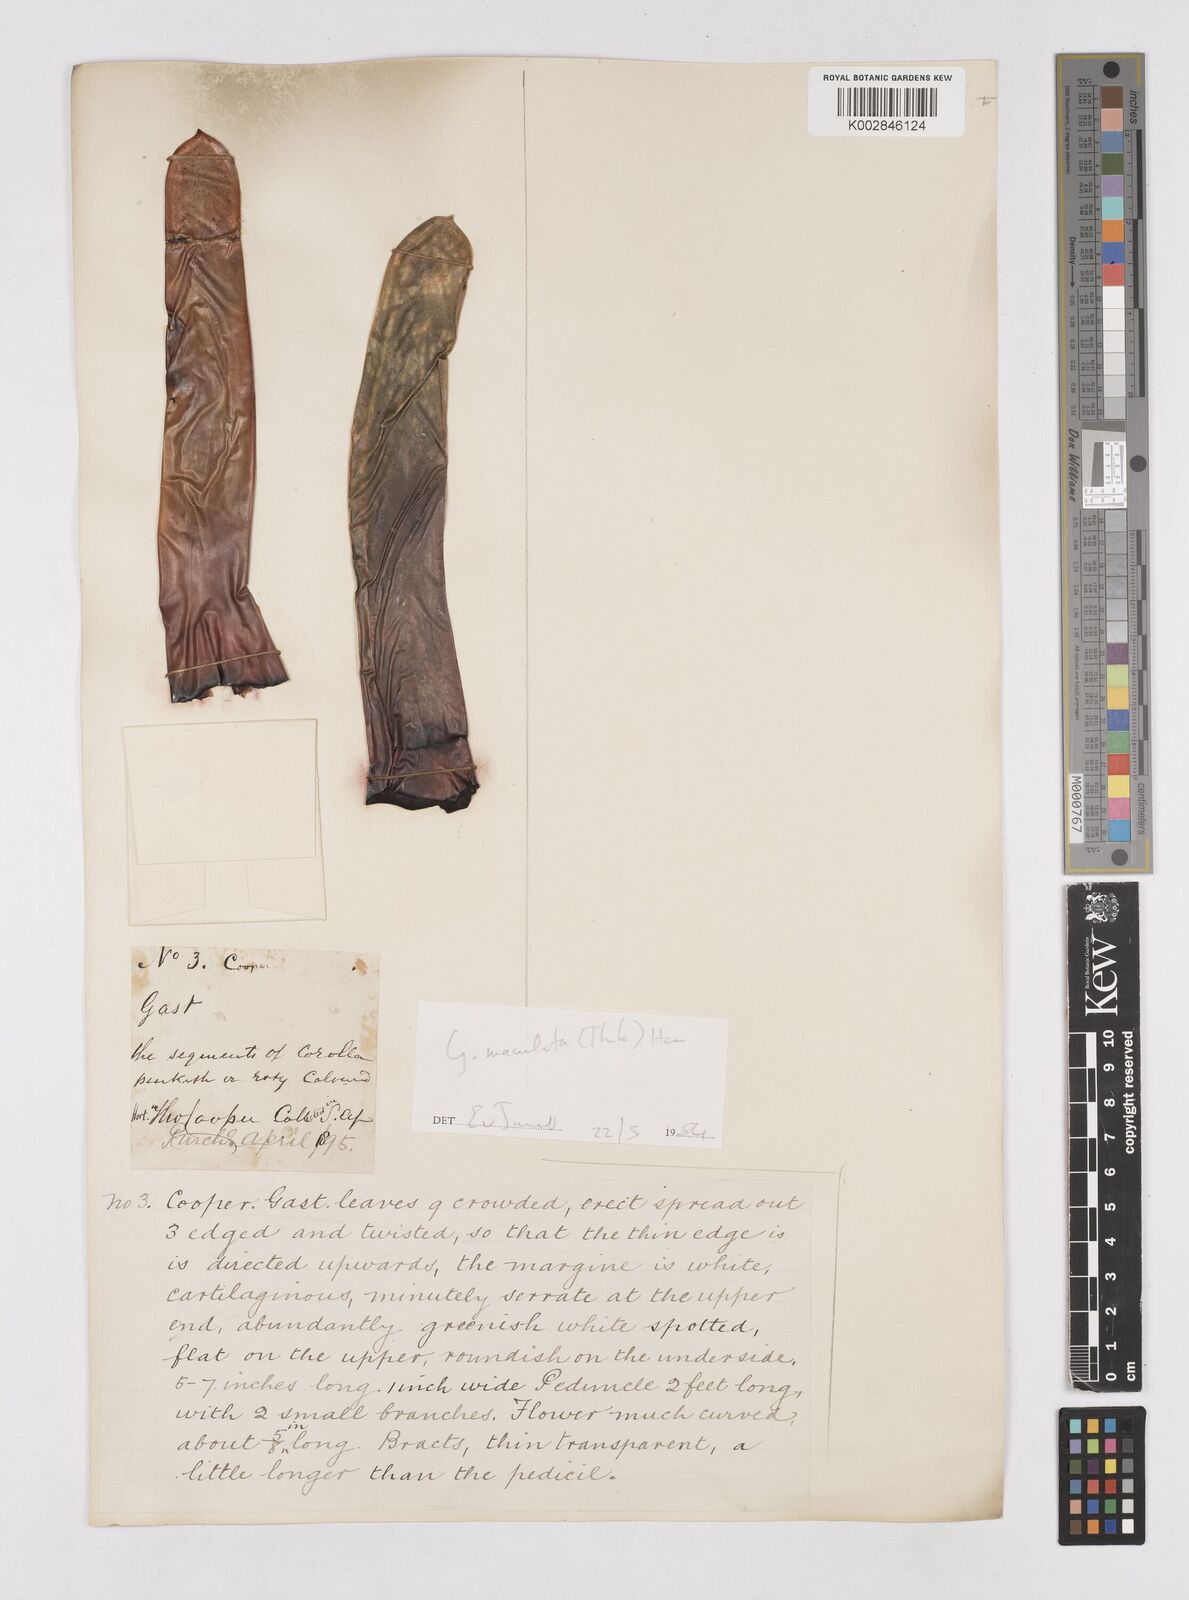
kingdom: Plantae
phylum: Tracheophyta
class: Liliopsida
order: Asparagales
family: Asphodelaceae
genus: Gasteria
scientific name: Gasteria
